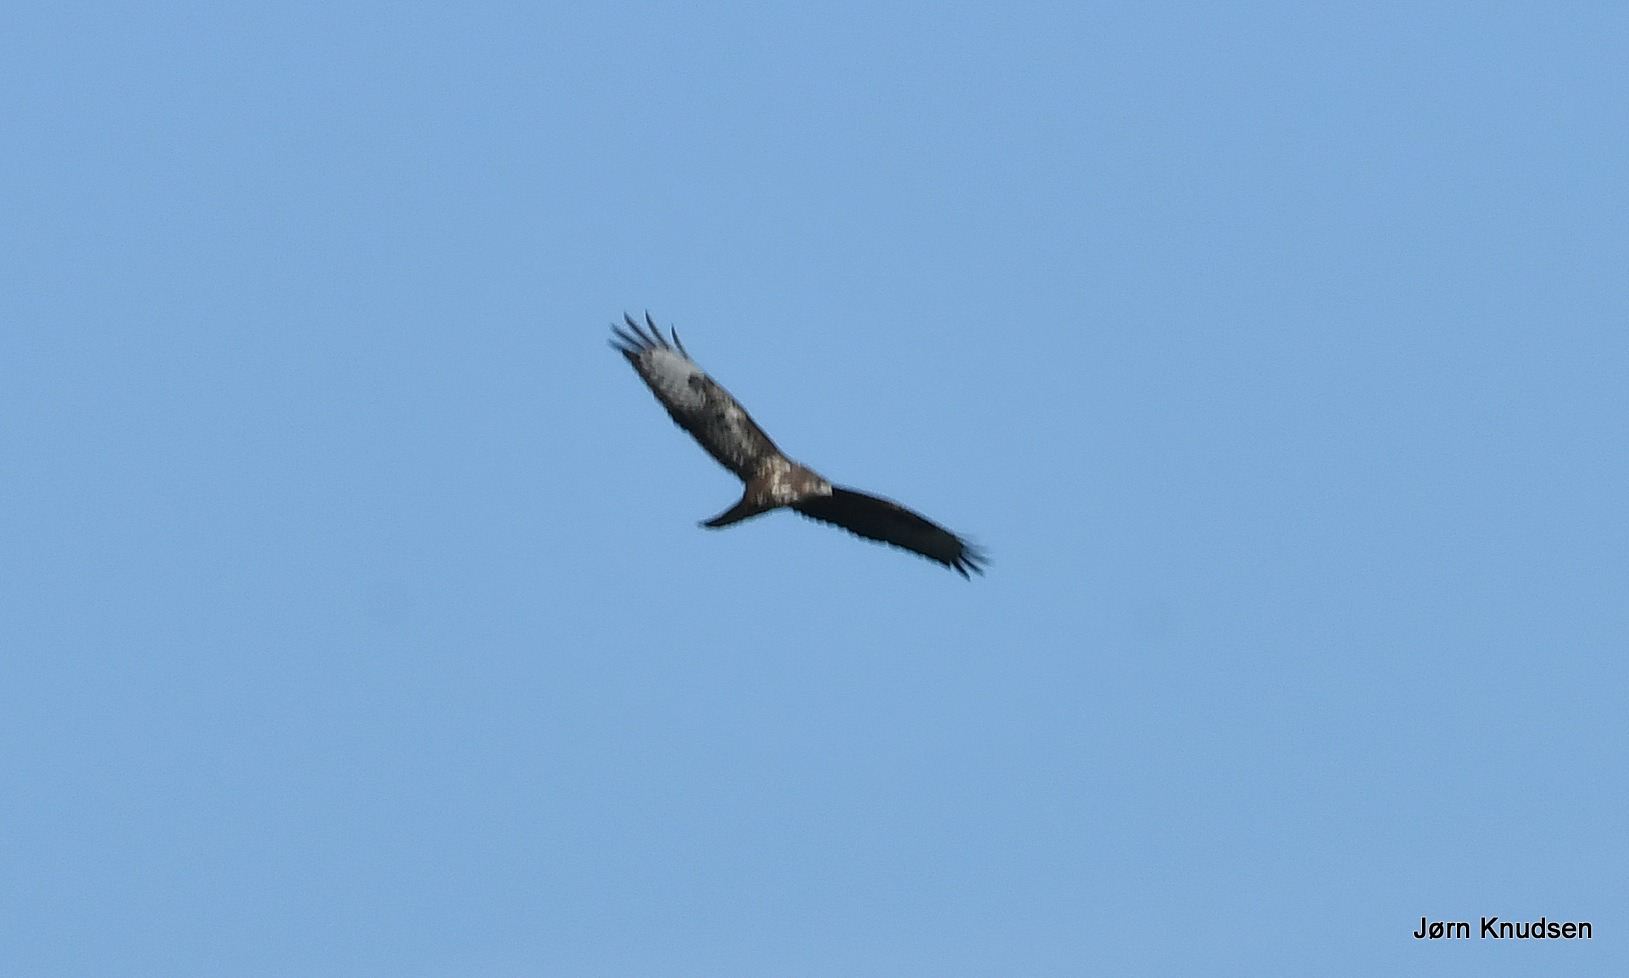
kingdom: Animalia
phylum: Chordata
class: Aves
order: Accipitriformes
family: Accipitridae
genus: Buteo
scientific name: Buteo buteo
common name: Musvåge
